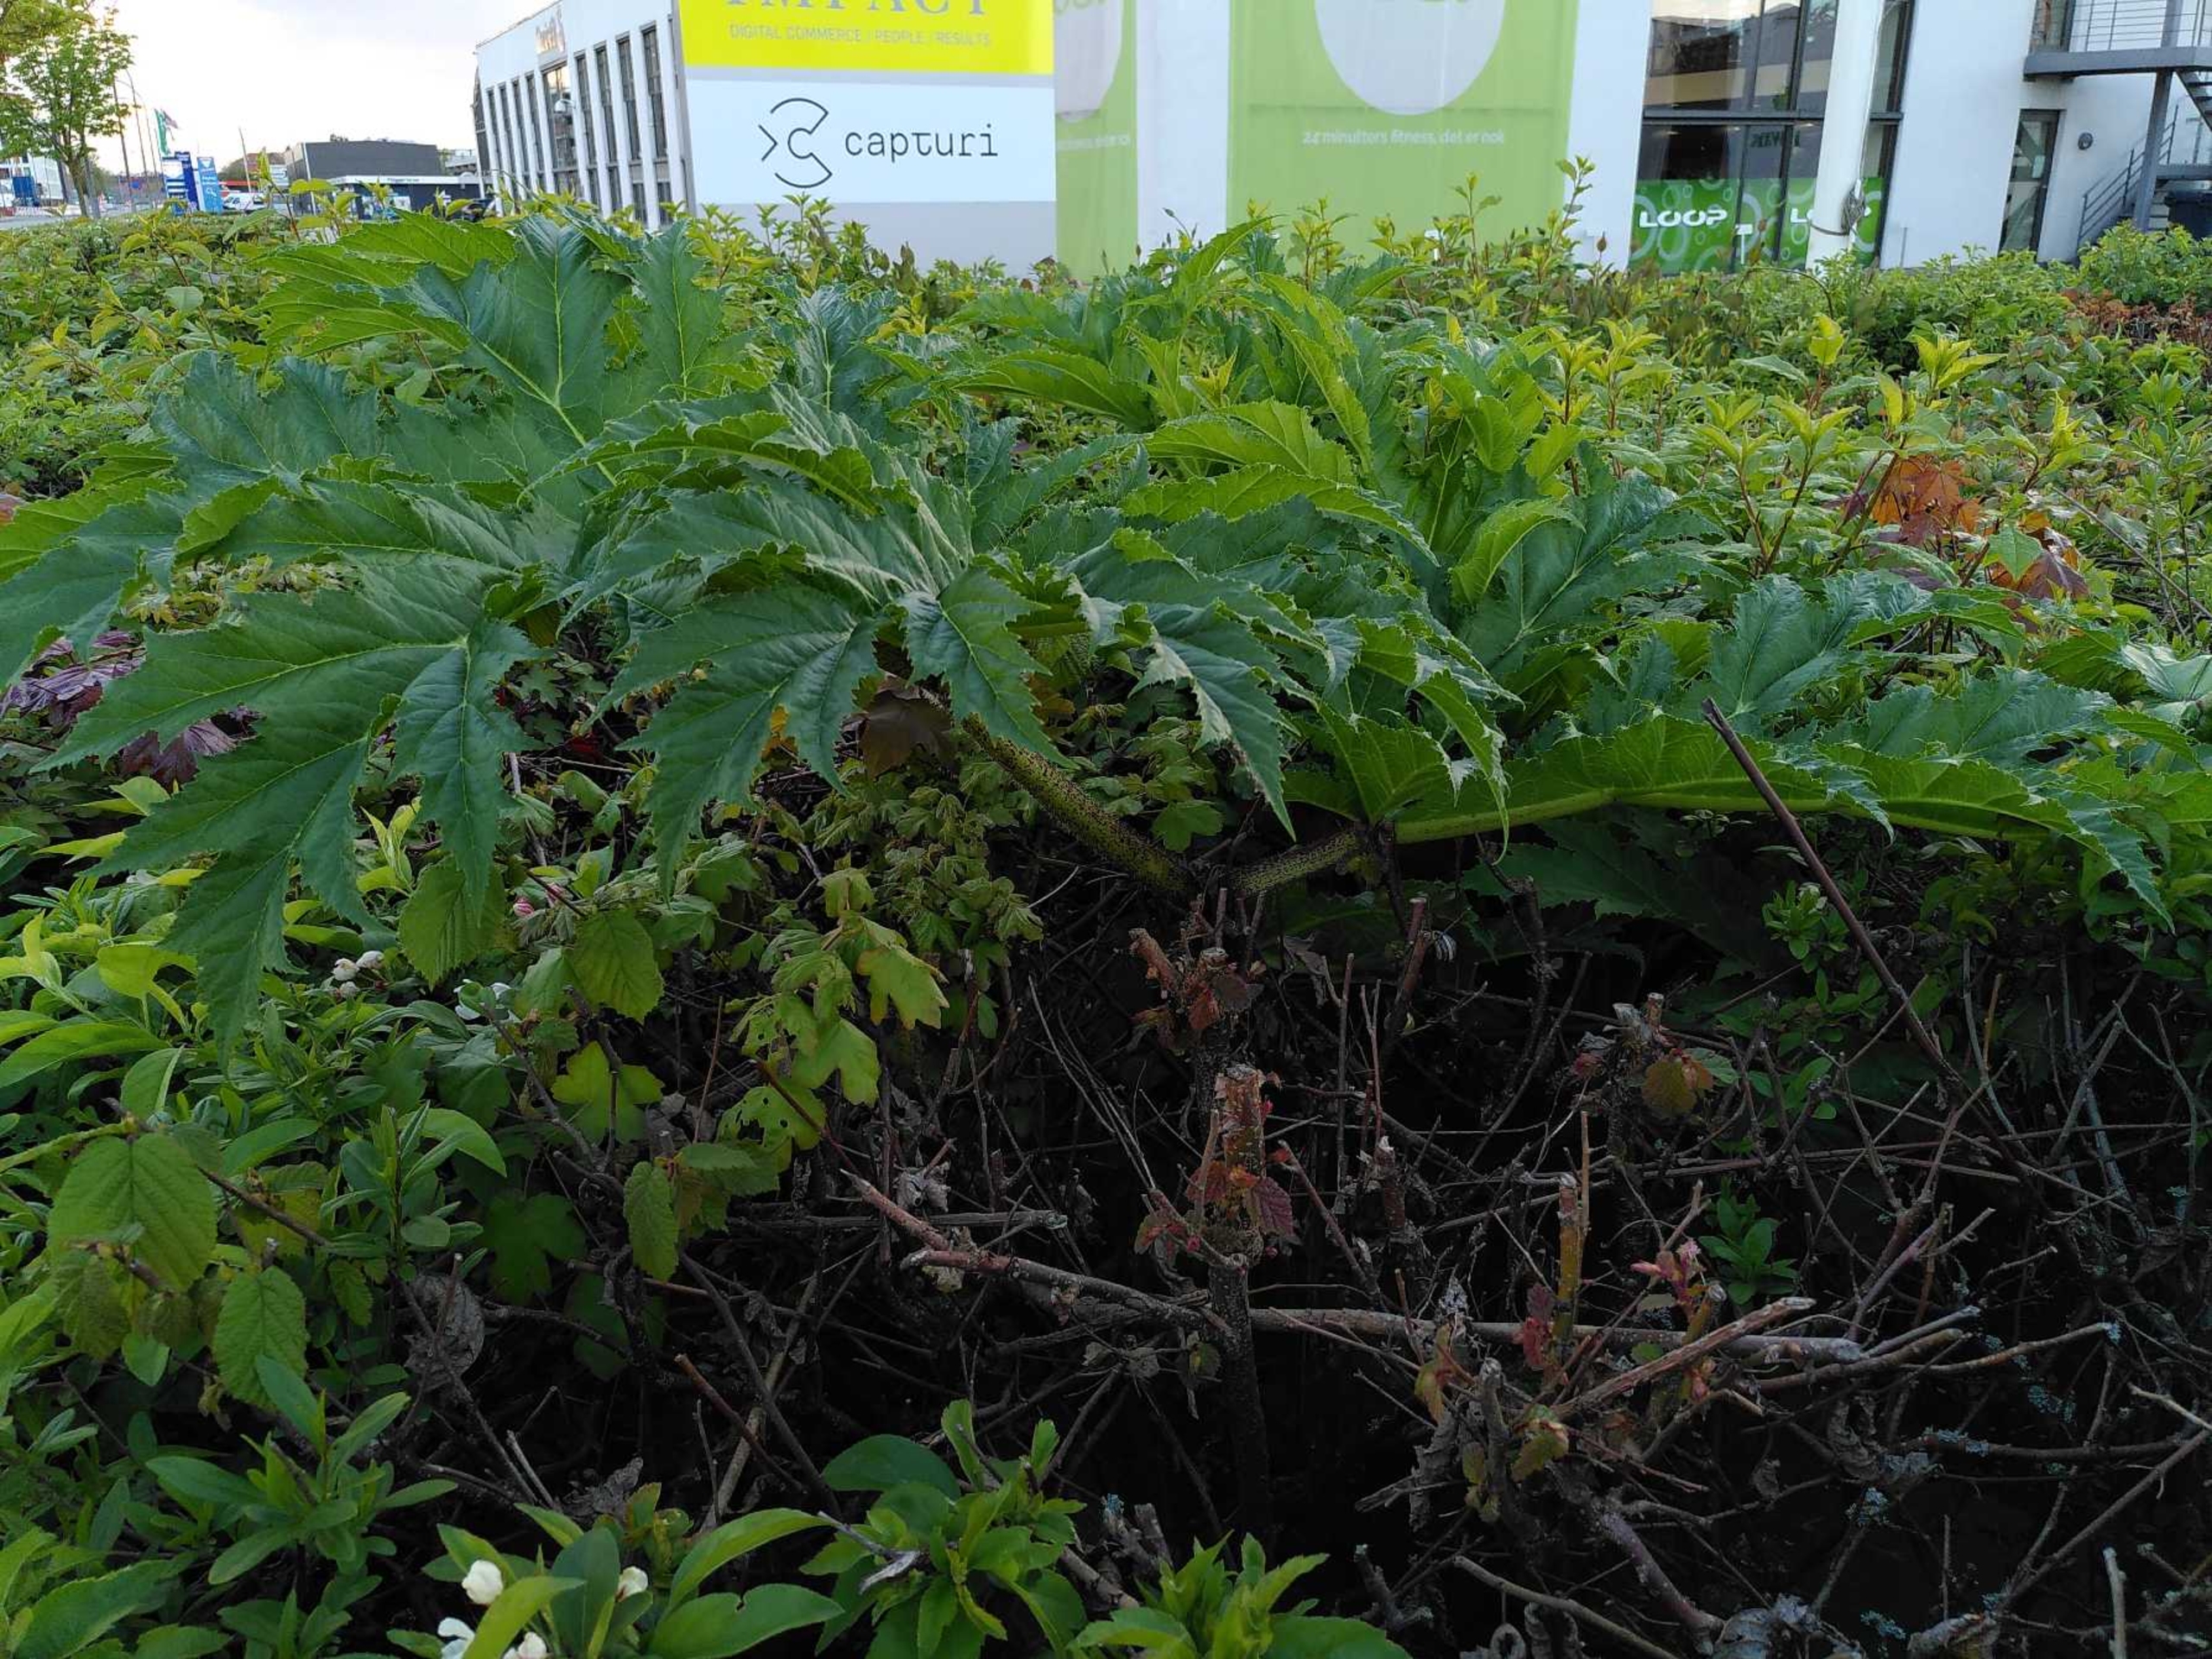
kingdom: Plantae
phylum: Tracheophyta
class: Magnoliopsida
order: Apiales
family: Apiaceae
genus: Heracleum
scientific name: Heracleum mantegazzianum
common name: Kæmpe-bjørneklo
